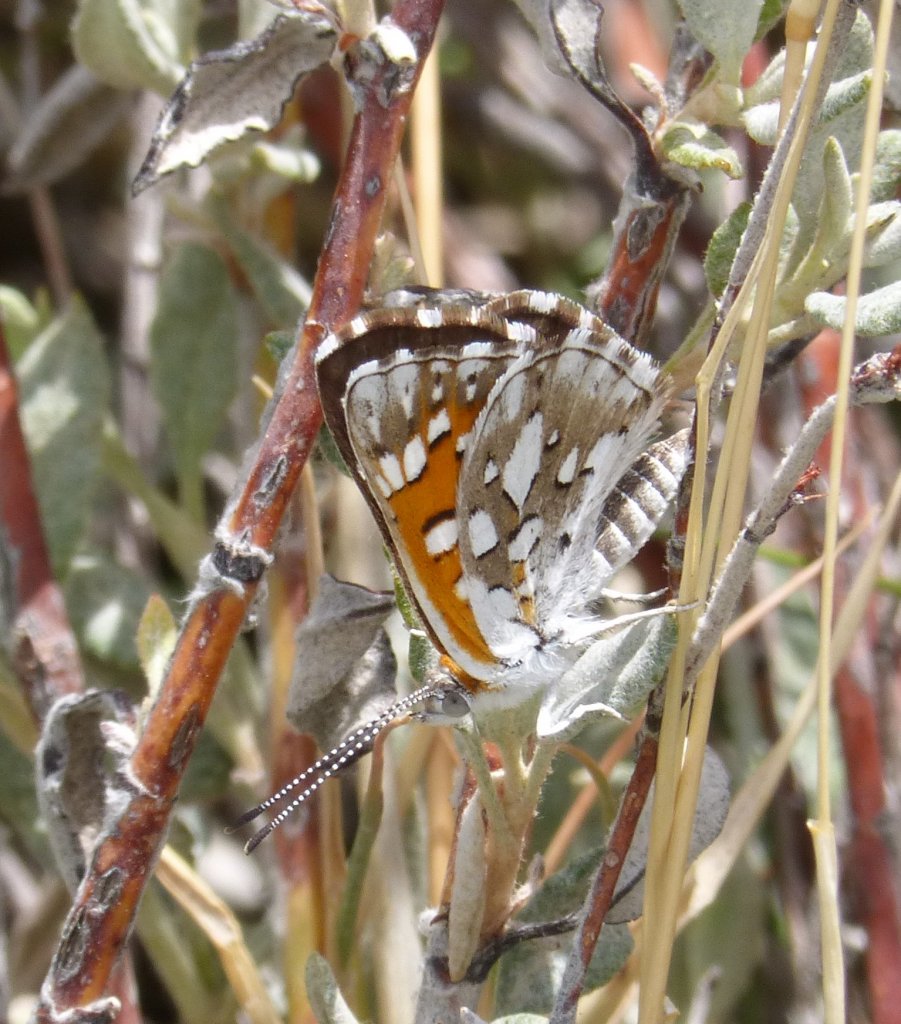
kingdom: Animalia
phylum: Arthropoda
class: Insecta
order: Lepidoptera
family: Riodinidae
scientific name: Riodinidae
